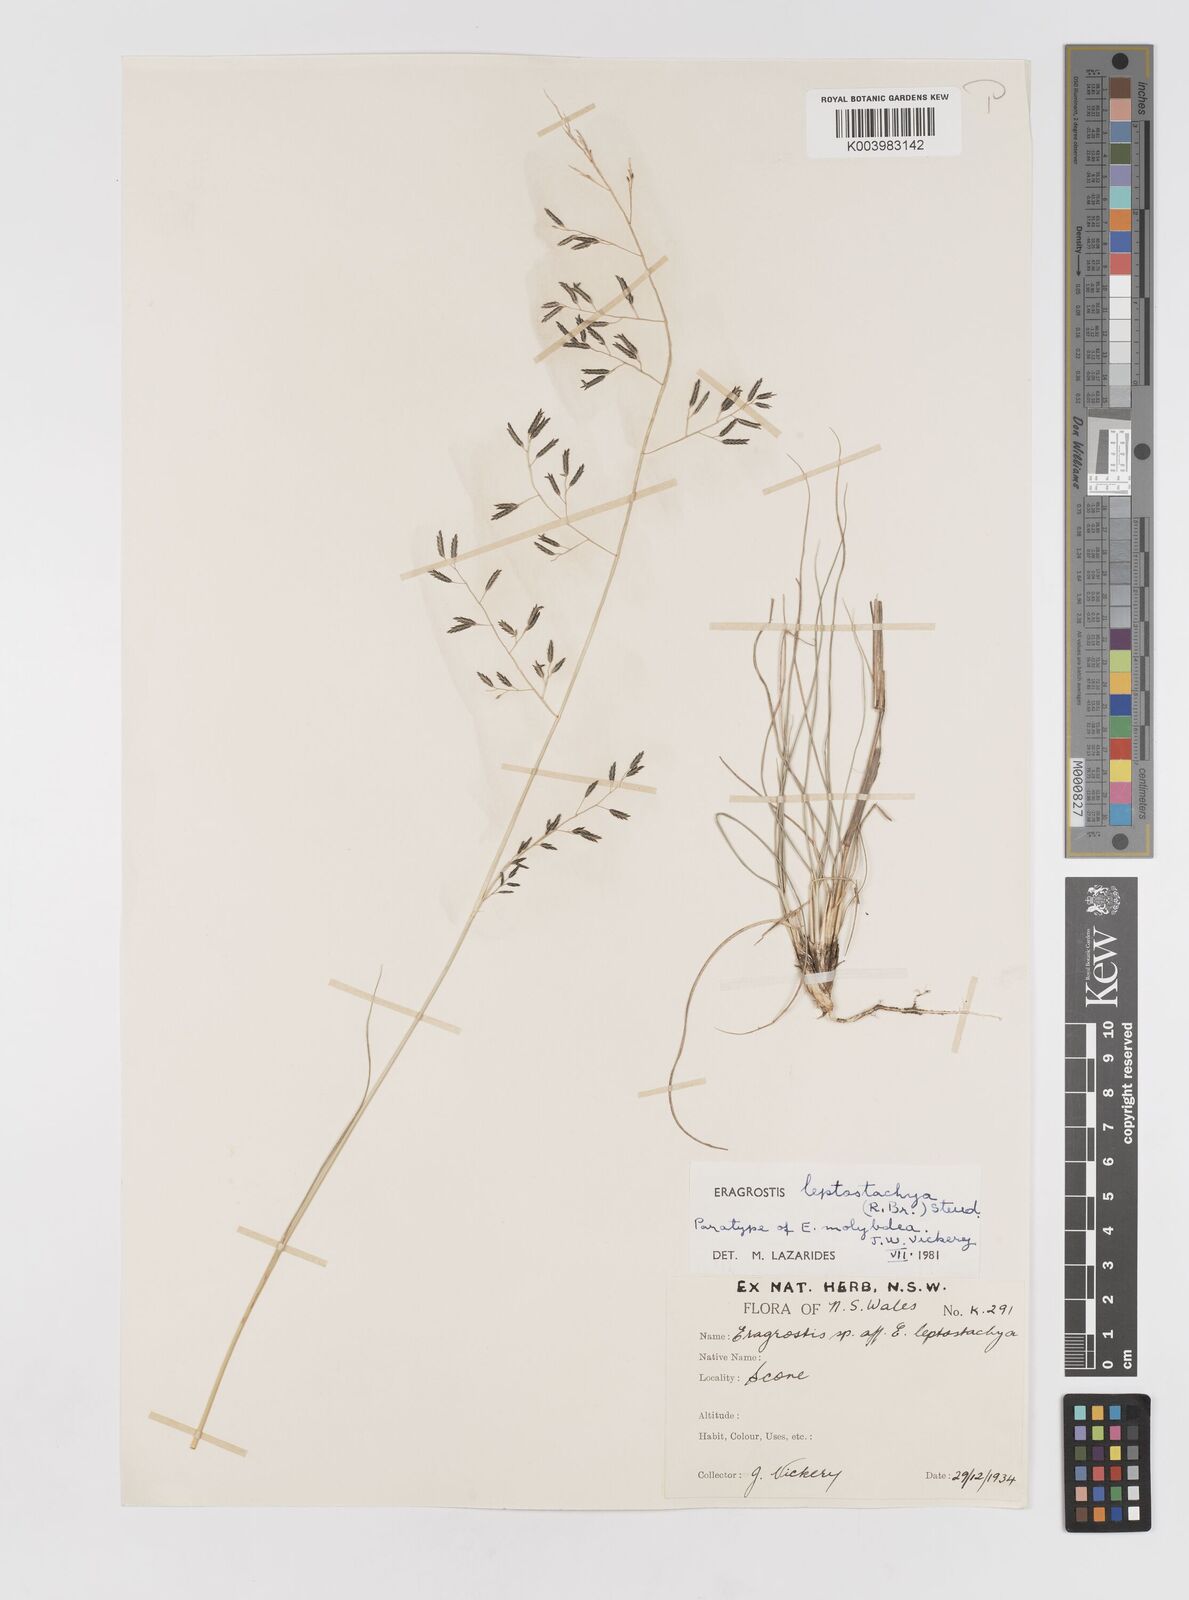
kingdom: Plantae
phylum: Tracheophyta
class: Liliopsida
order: Poales
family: Poaceae
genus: Eragrostis
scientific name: Eragrostis leptostachya
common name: Australian lovegrass
